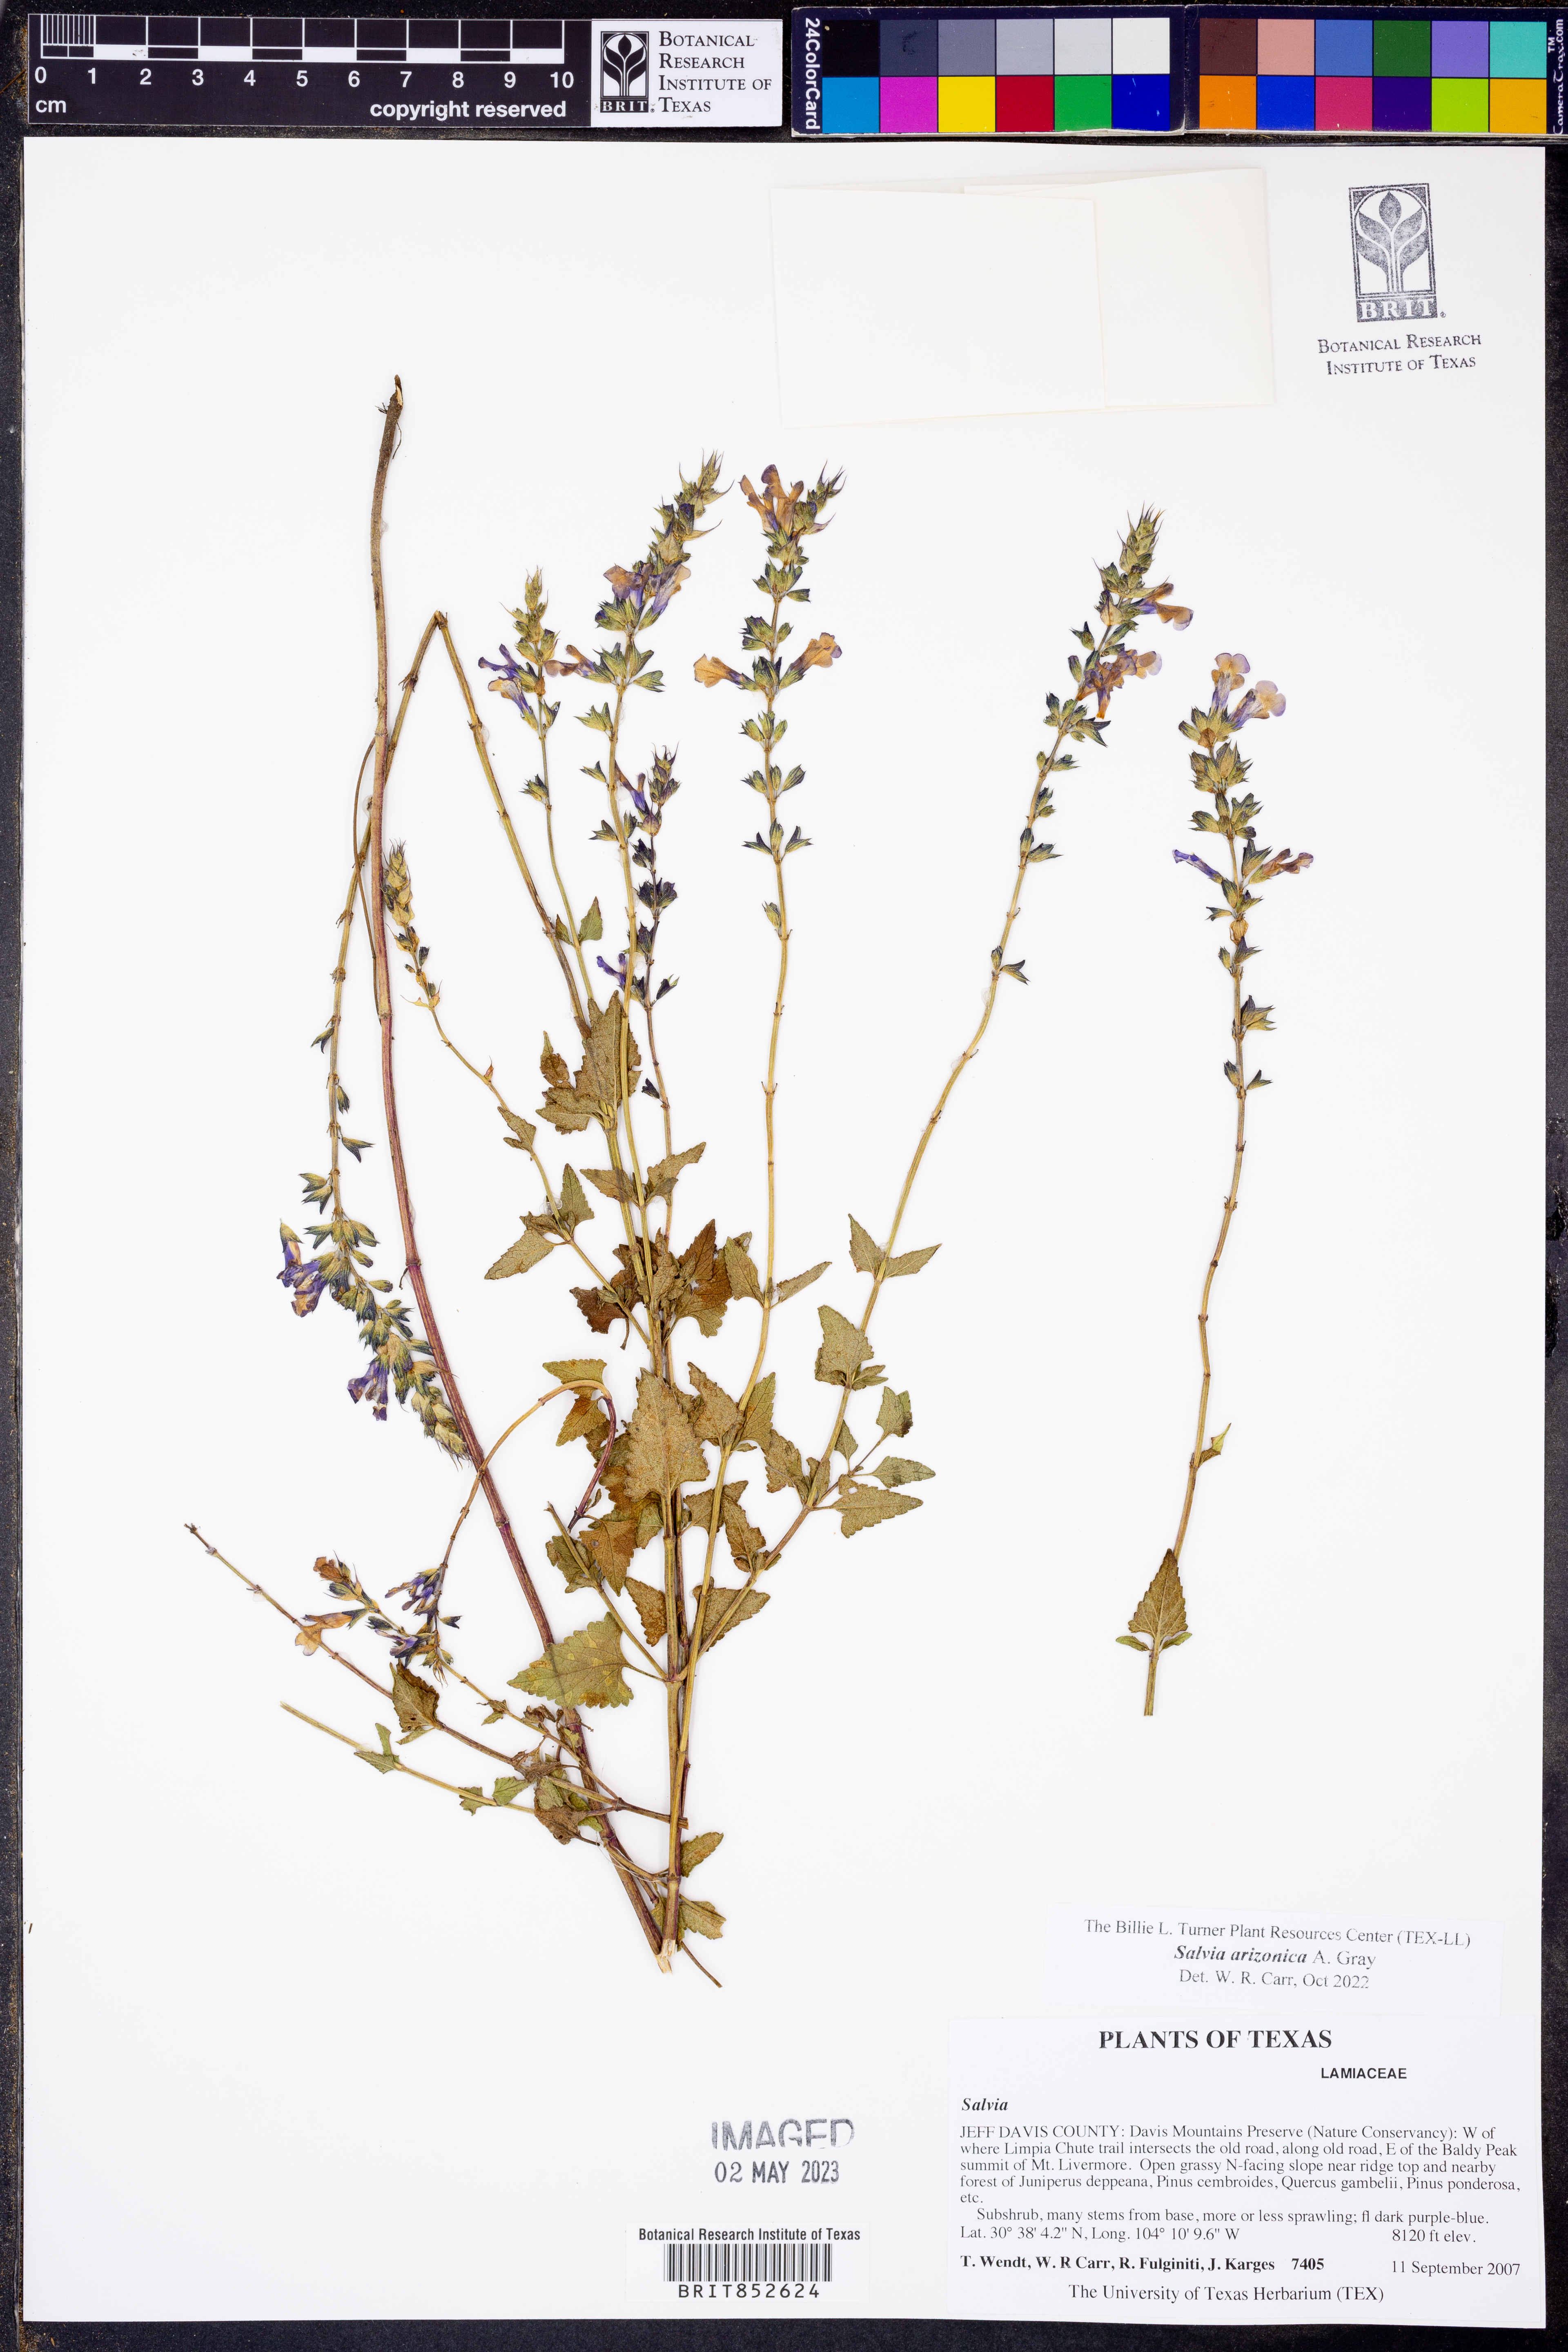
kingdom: Plantae
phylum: Tracheophyta
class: Magnoliopsida
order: Lamiales
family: Lamiaceae
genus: Salvia
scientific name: Salvia arizonica
